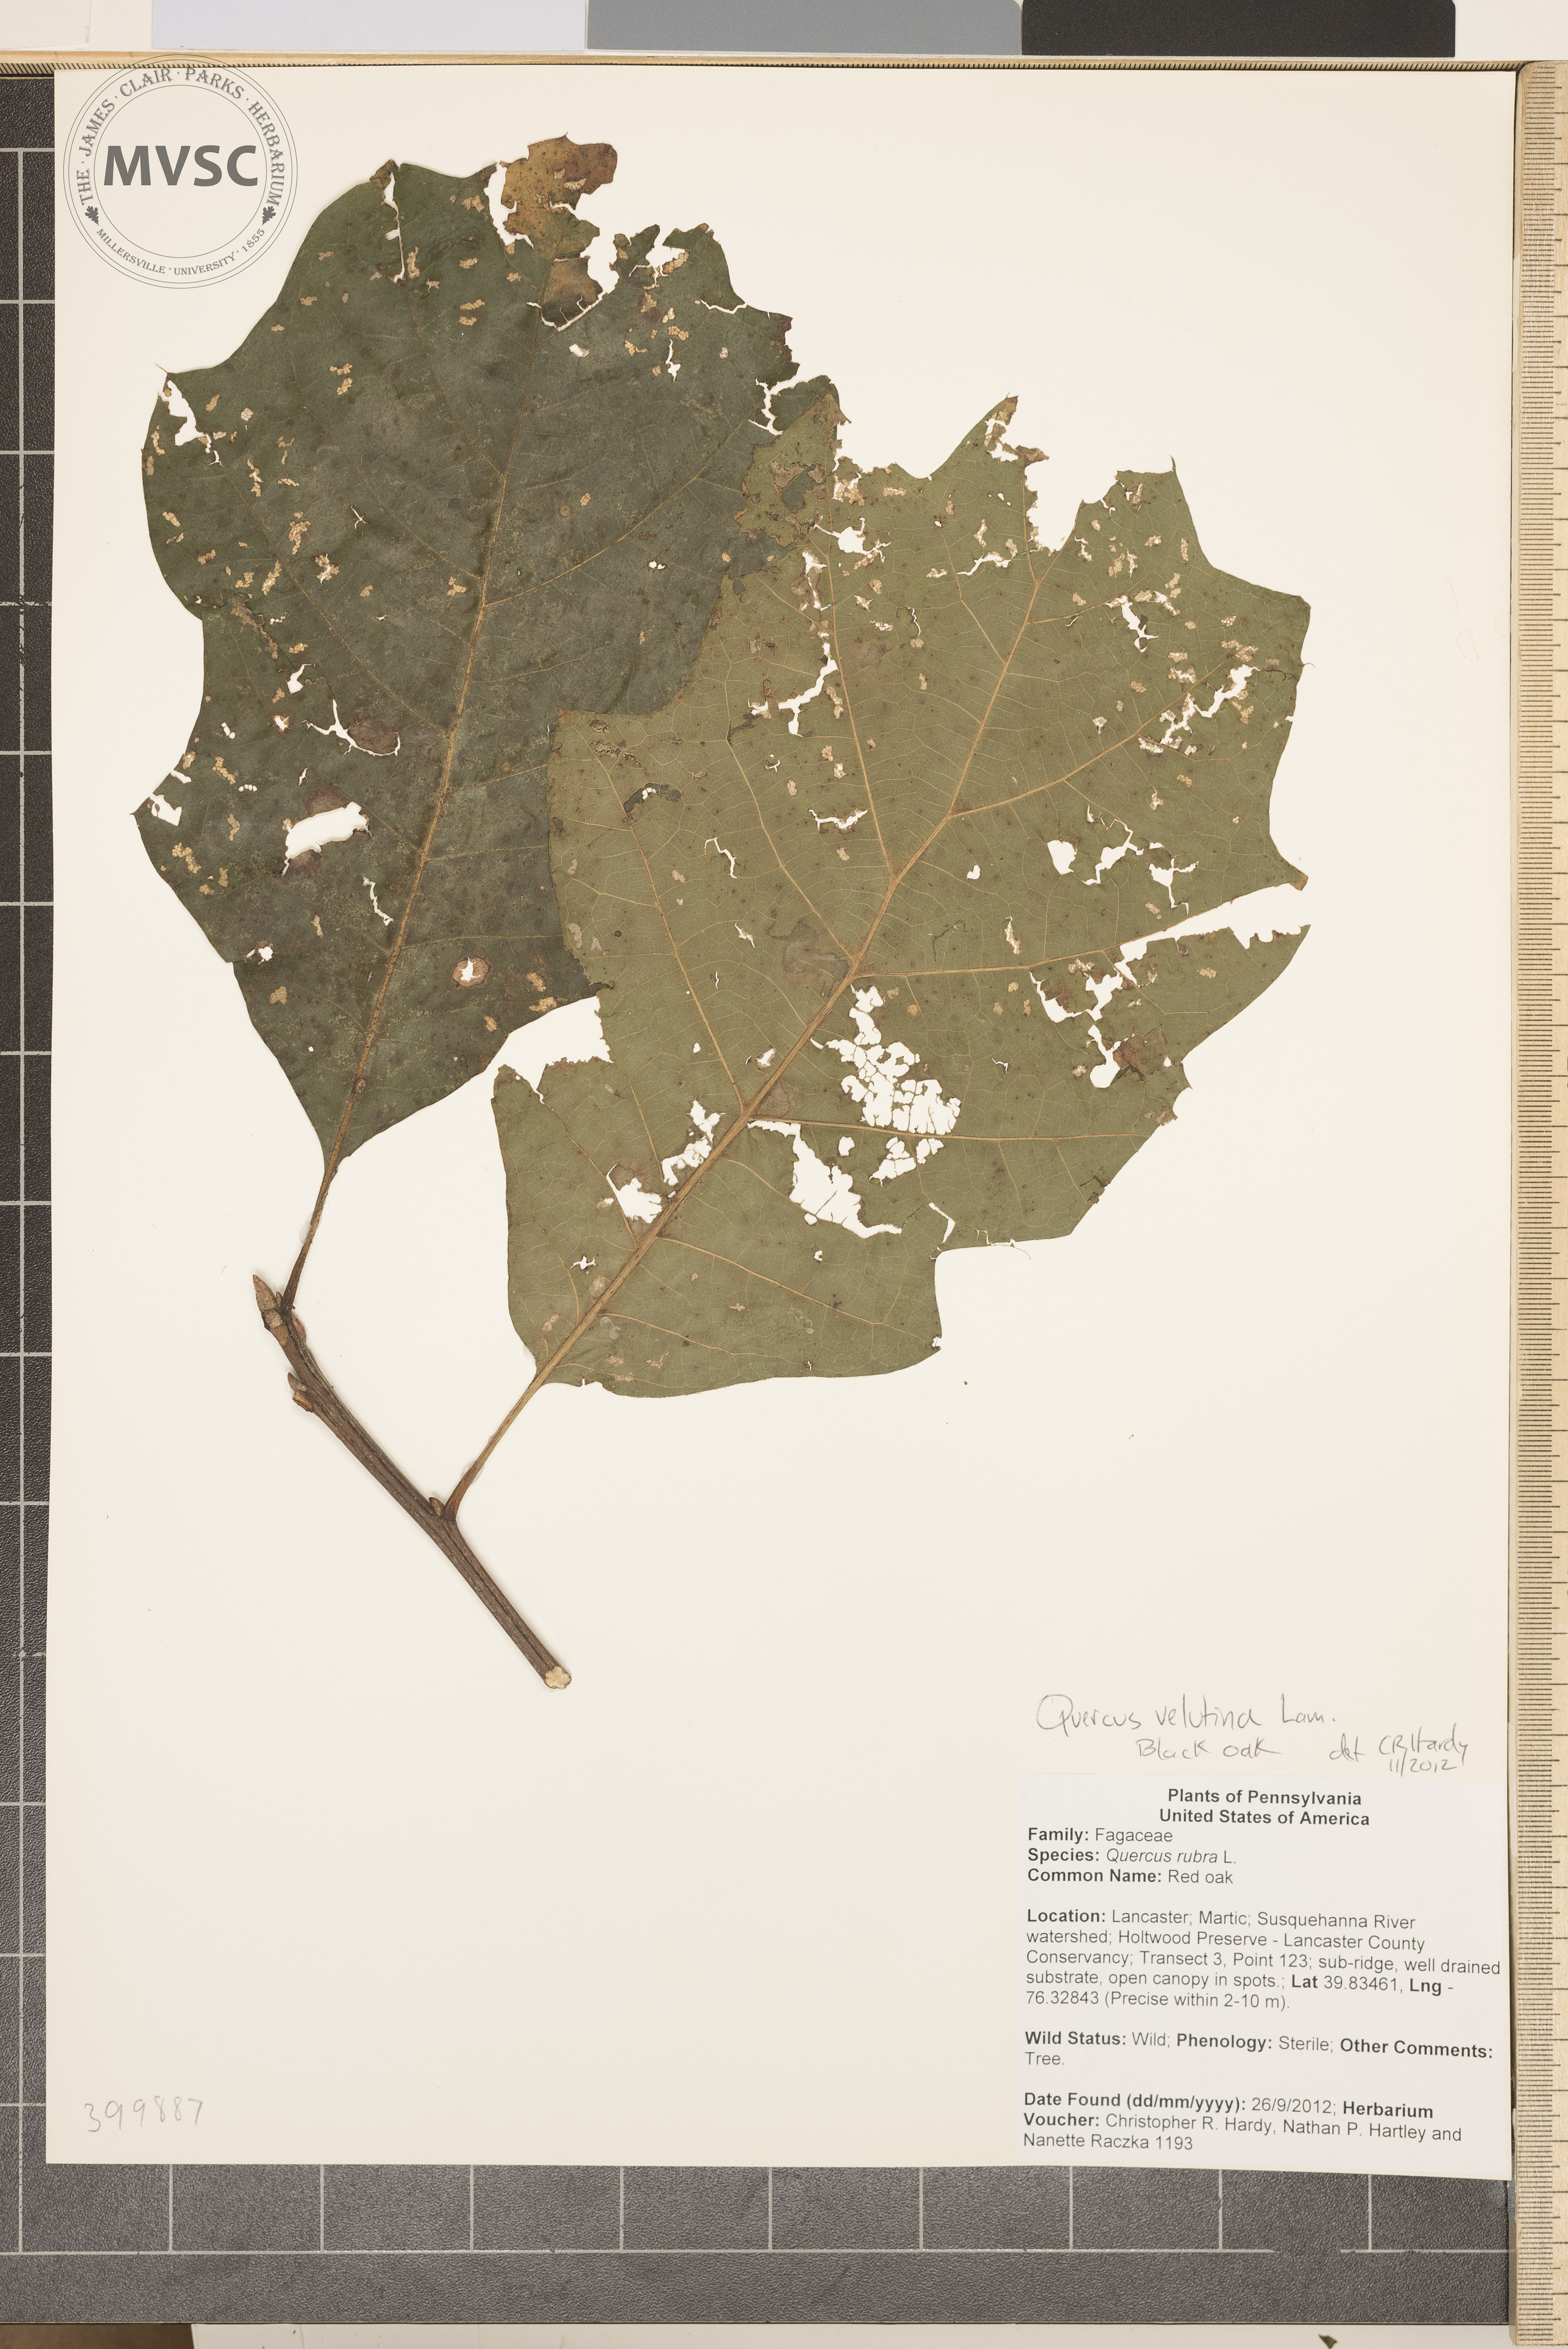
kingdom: Plantae
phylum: Tracheophyta
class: Magnoliopsida
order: Fagales
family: Fagaceae
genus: Quercus
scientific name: Quercus velutina
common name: black oak
